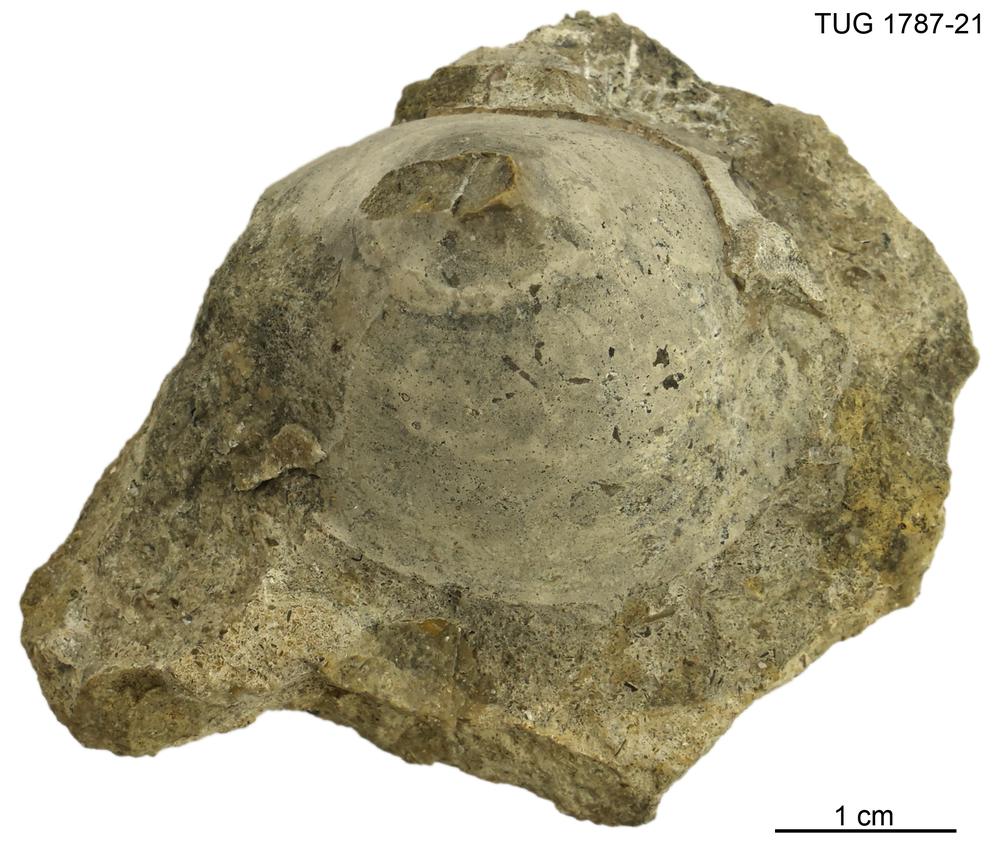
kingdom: Animalia
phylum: Mollusca
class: Monoplacophora
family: Metoptomatidae
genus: Metoptoma
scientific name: Metoptoma
